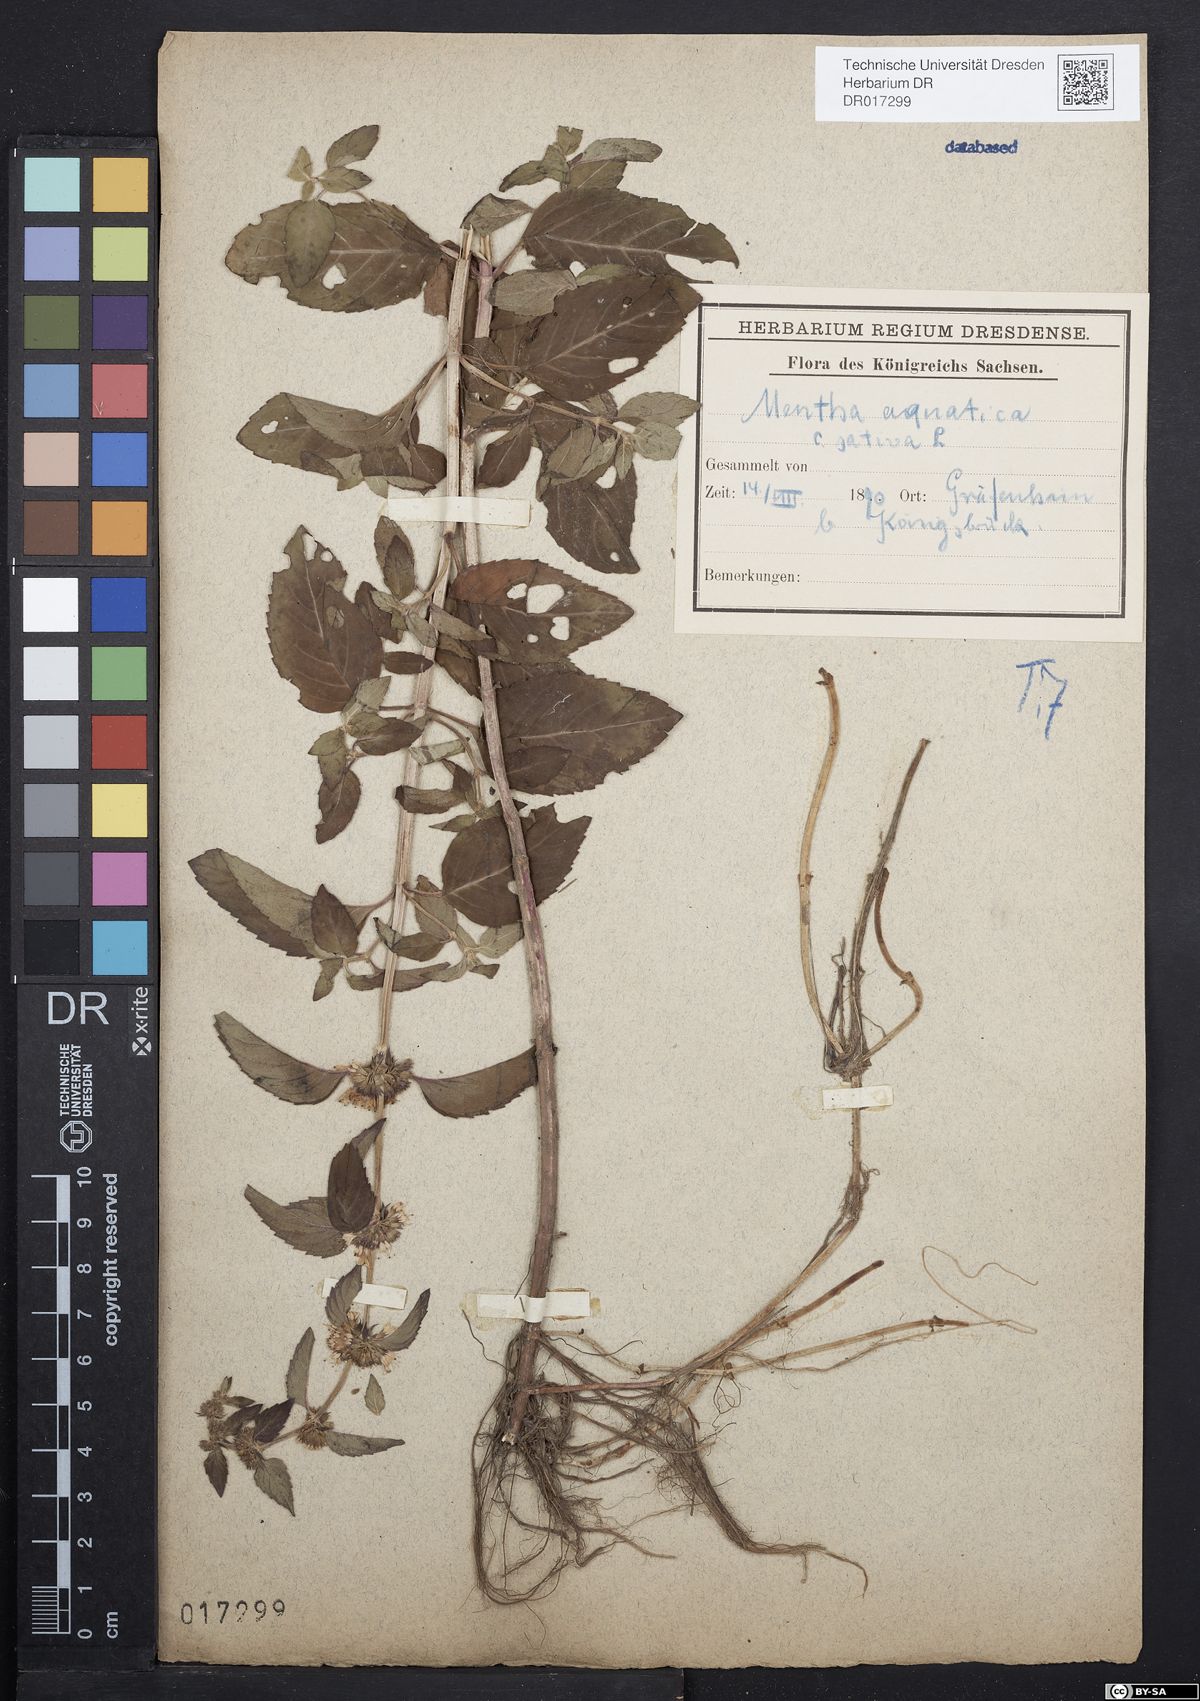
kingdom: Plantae
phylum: Tracheophyta
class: Magnoliopsida
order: Lamiales
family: Lamiaceae
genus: Mentha
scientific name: Mentha verticillata
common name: Mint
